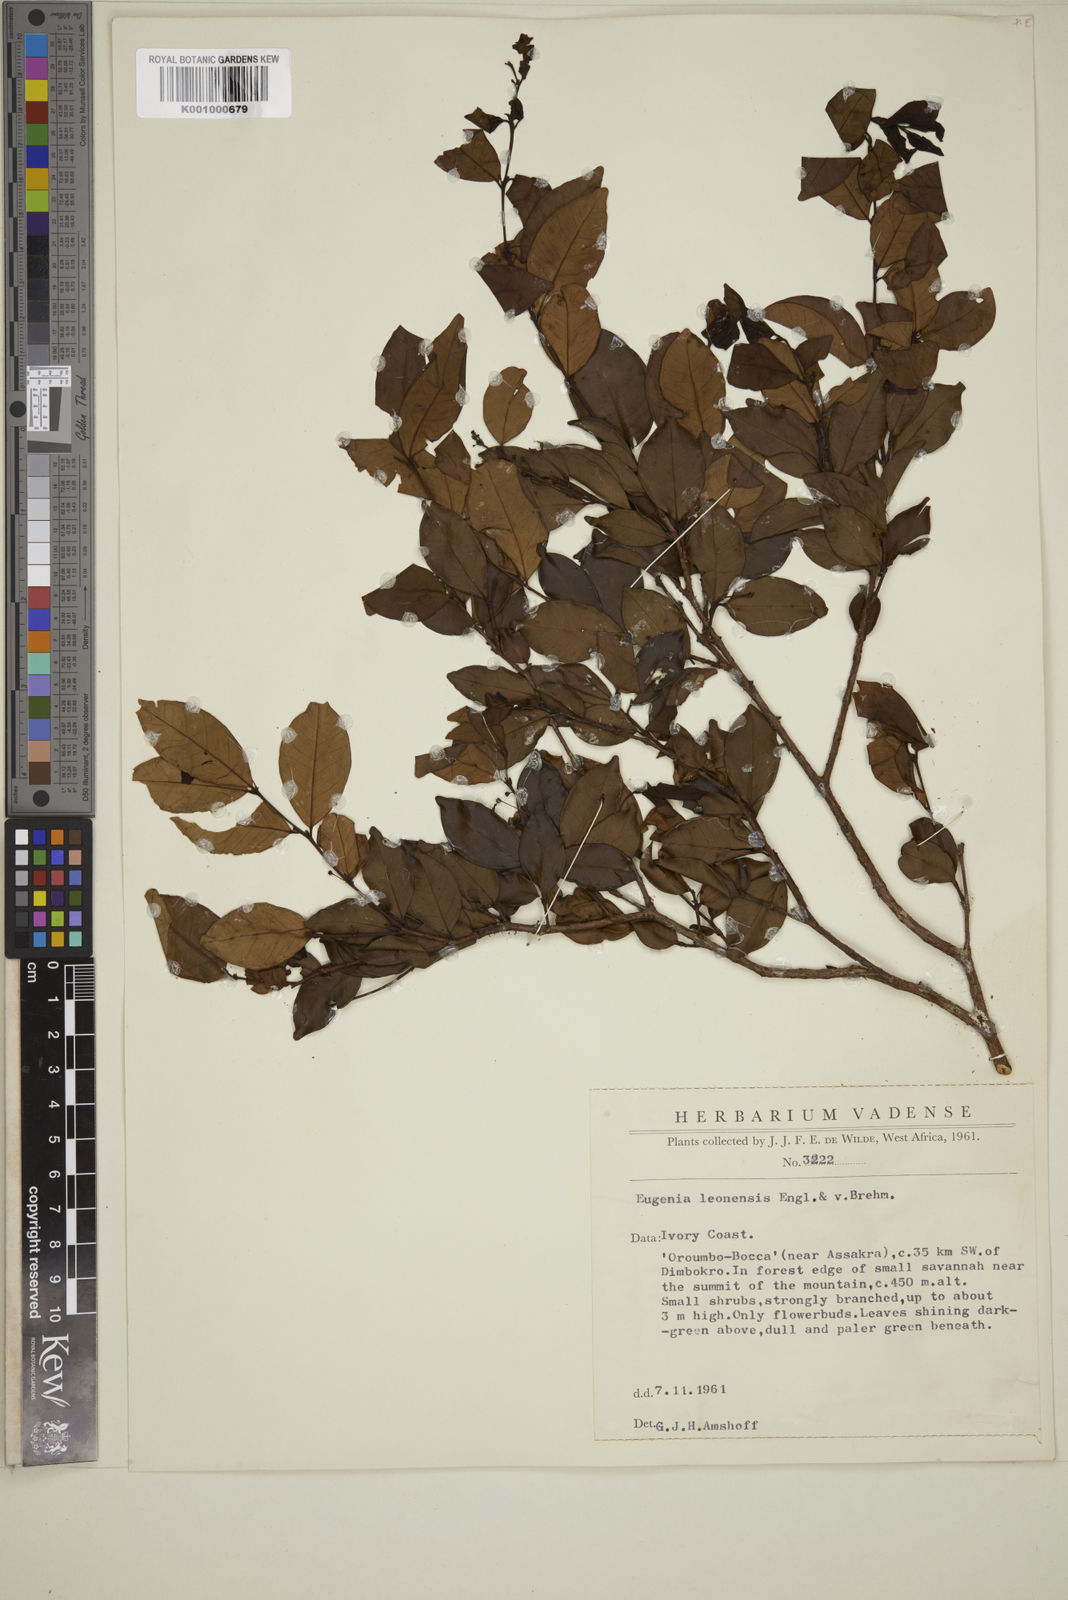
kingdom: Plantae
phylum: Tracheophyta
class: Magnoliopsida
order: Myrtales
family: Myrtaceae
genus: Eugenia
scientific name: Eugenia leonensis
